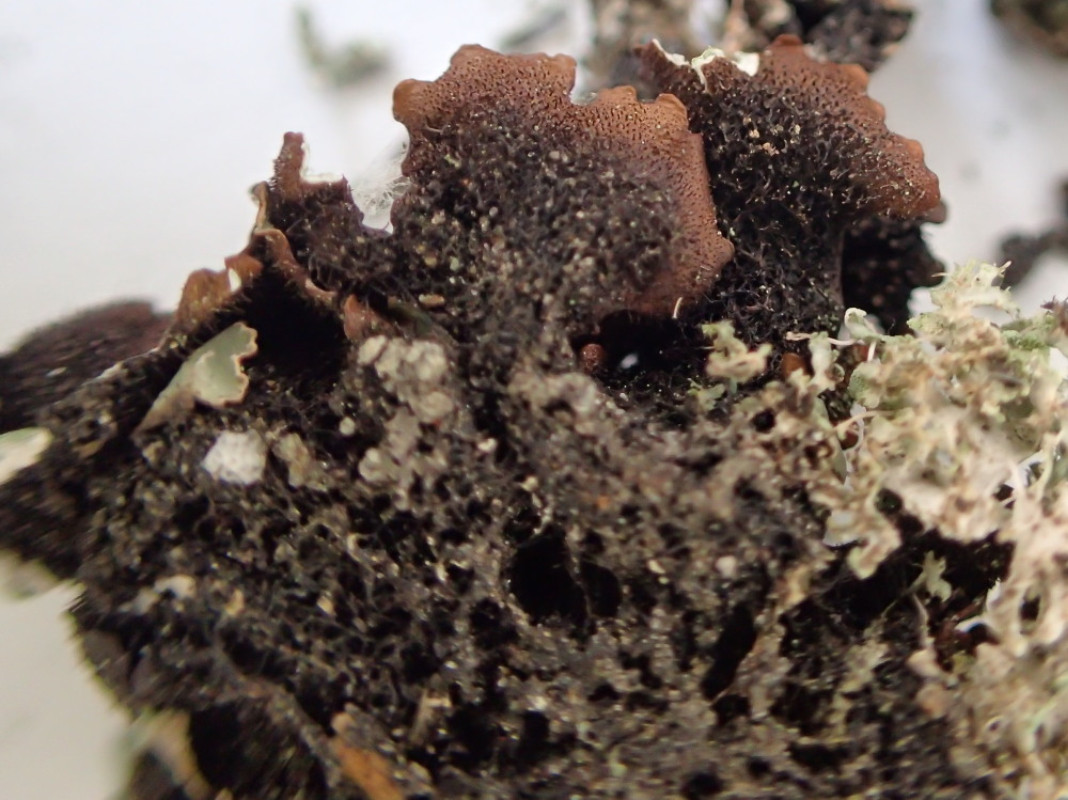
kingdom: Fungi
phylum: Ascomycota
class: Lecanoromycetes
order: Lecanorales
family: Parmeliaceae
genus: Parmelia
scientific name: Parmelia sulcata
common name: rynket skållav
